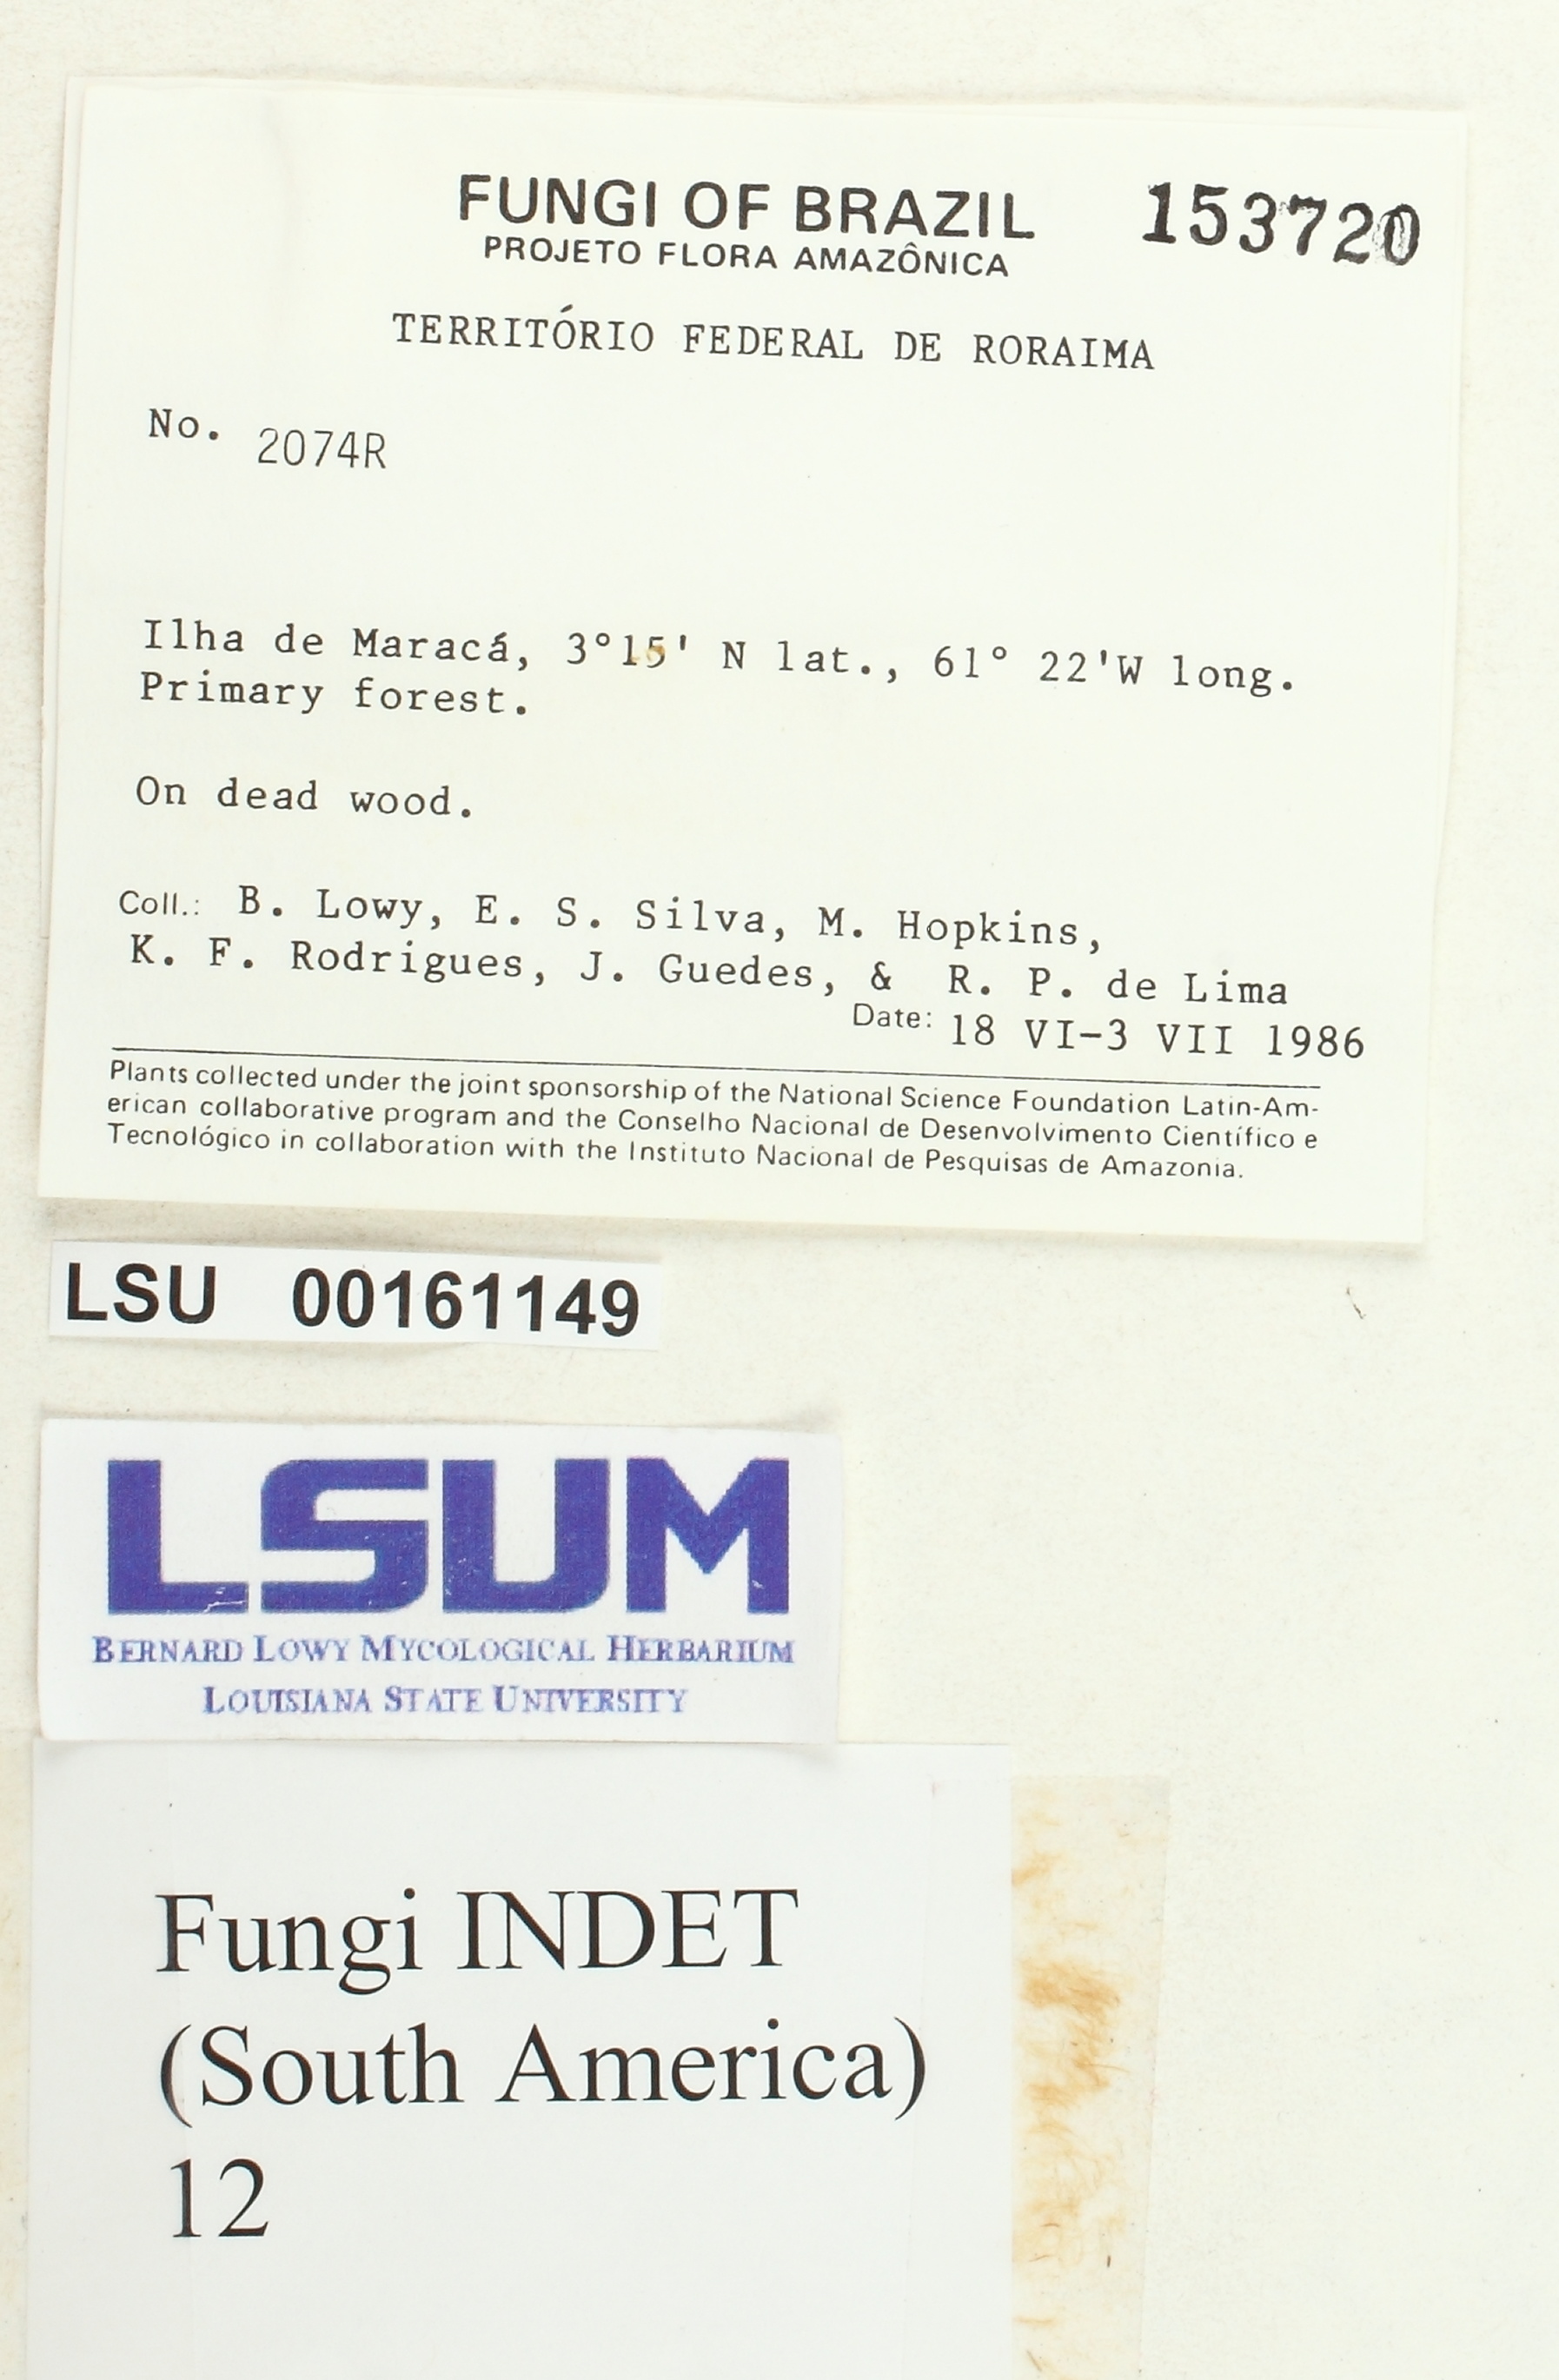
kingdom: Fungi
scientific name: Fungi
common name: Fungi
